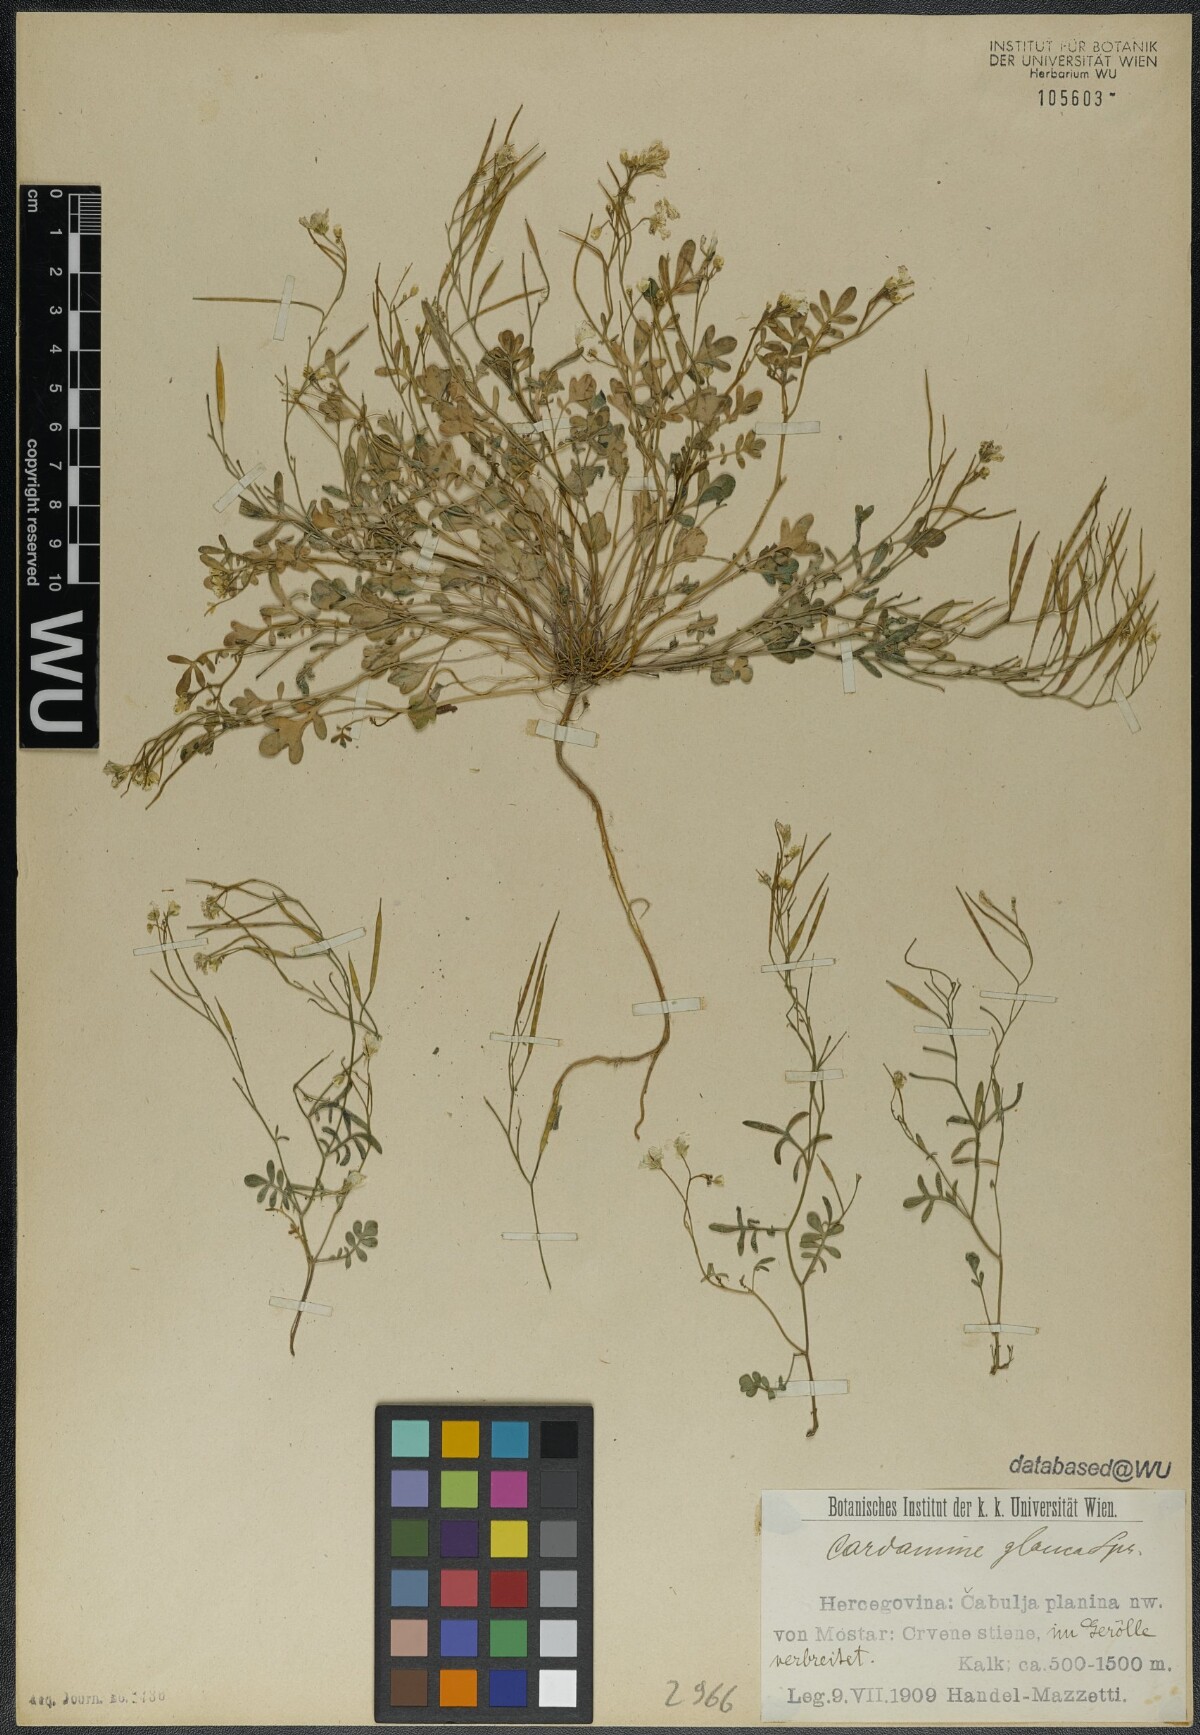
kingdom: Plantae
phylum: Tracheophyta
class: Magnoliopsida
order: Brassicales
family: Brassicaceae
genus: Cardamine
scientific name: Cardamine glauca
